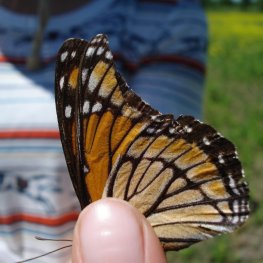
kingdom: Animalia
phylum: Arthropoda
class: Insecta
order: Lepidoptera
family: Nymphalidae
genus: Limenitis
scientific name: Limenitis archippus
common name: Viceroy
